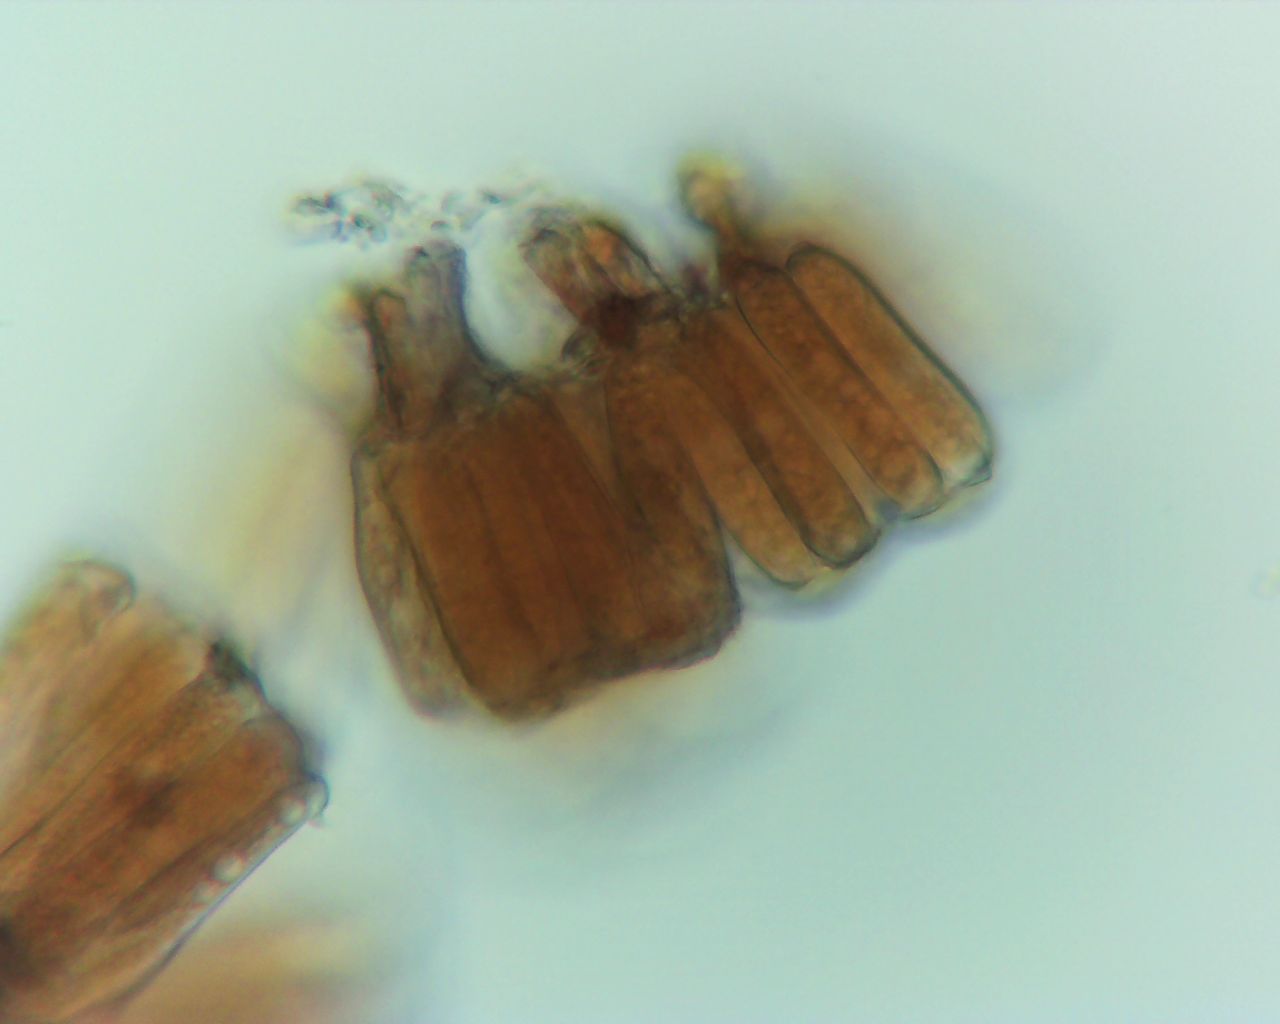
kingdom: Fungi
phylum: Basidiomycota
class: Pucciniomycetes
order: Pucciniales
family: Pucciniastraceae
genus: Melampsoridium
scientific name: Melampsoridium
